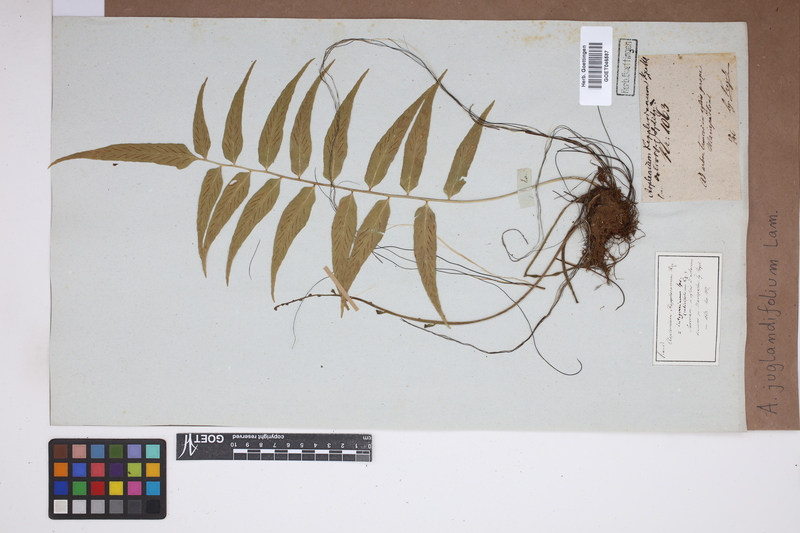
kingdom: Plantae
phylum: Tracheophyta
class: Polypodiopsida
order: Polypodiales
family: Aspleniaceae
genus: Asplenium
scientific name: Asplenium juglandifolium
